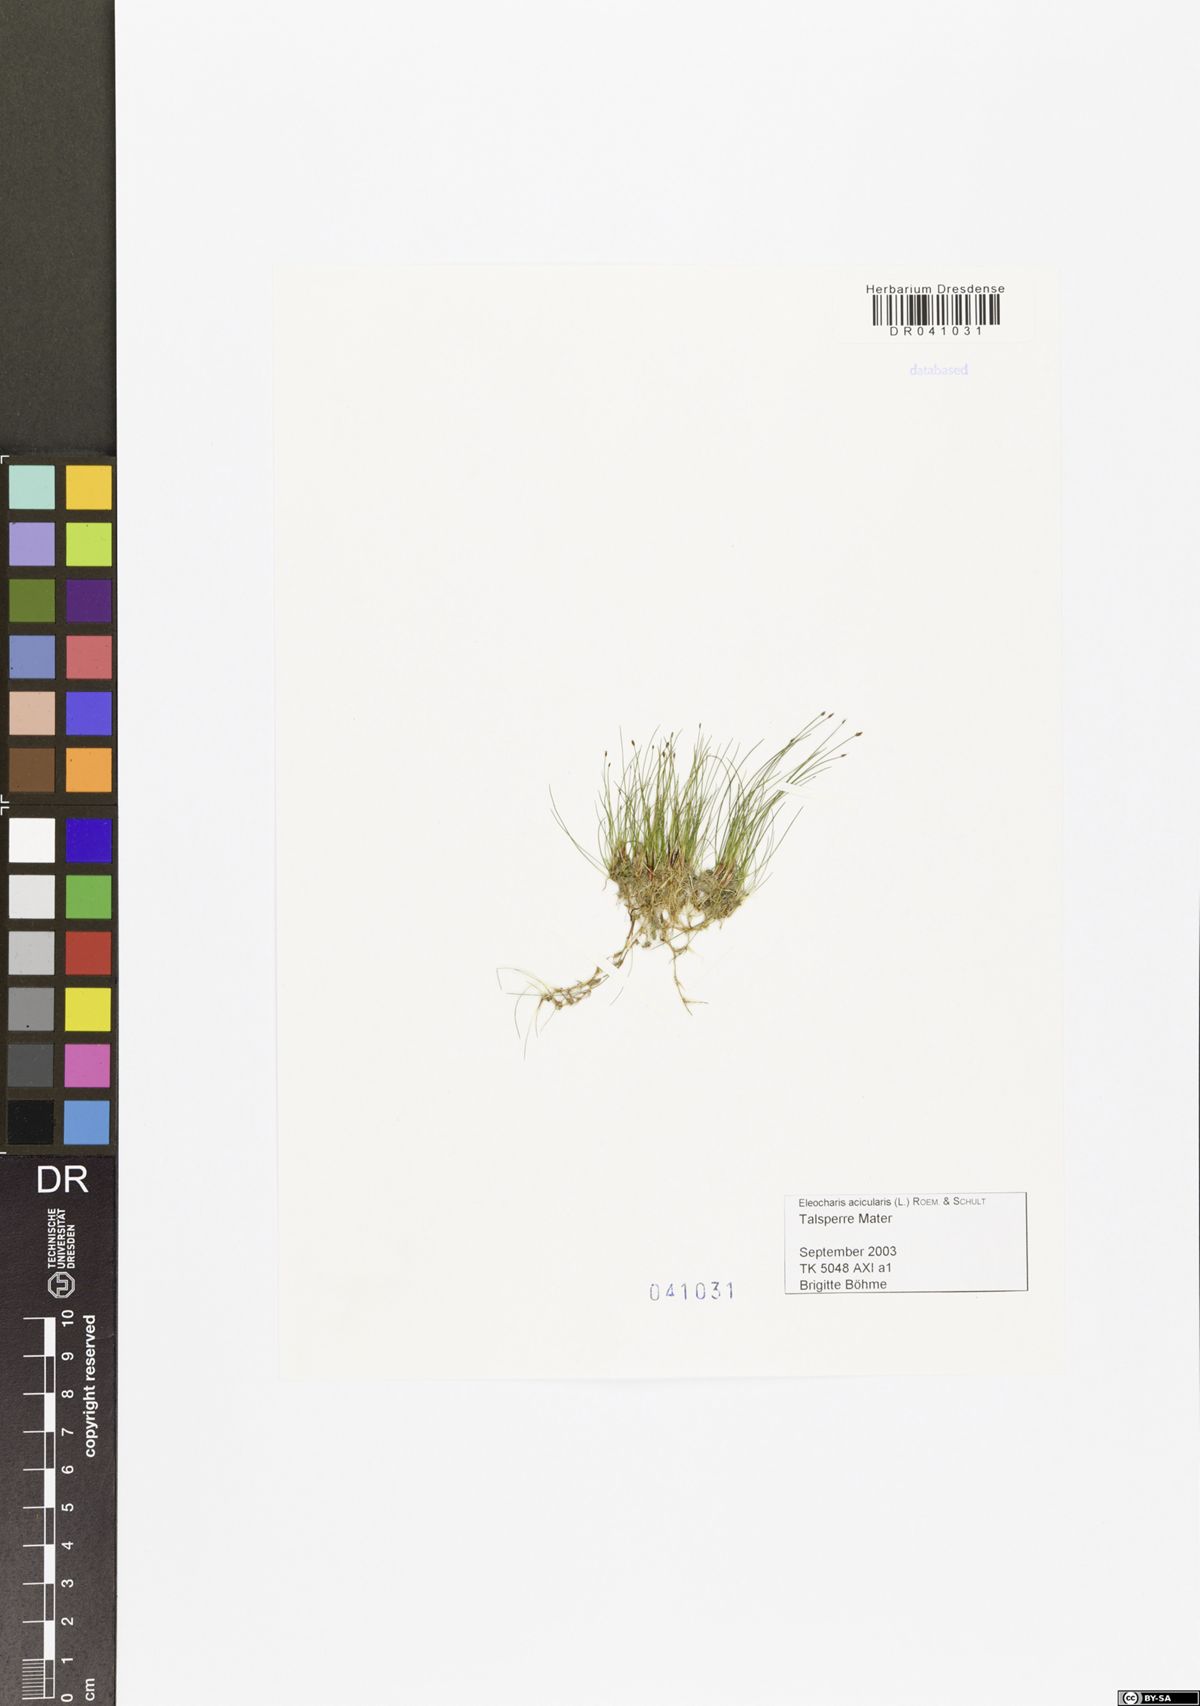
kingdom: Plantae
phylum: Tracheophyta
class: Liliopsida
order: Poales
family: Cyperaceae
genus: Eleocharis
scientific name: Eleocharis acicularis
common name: Needle spike-rush
